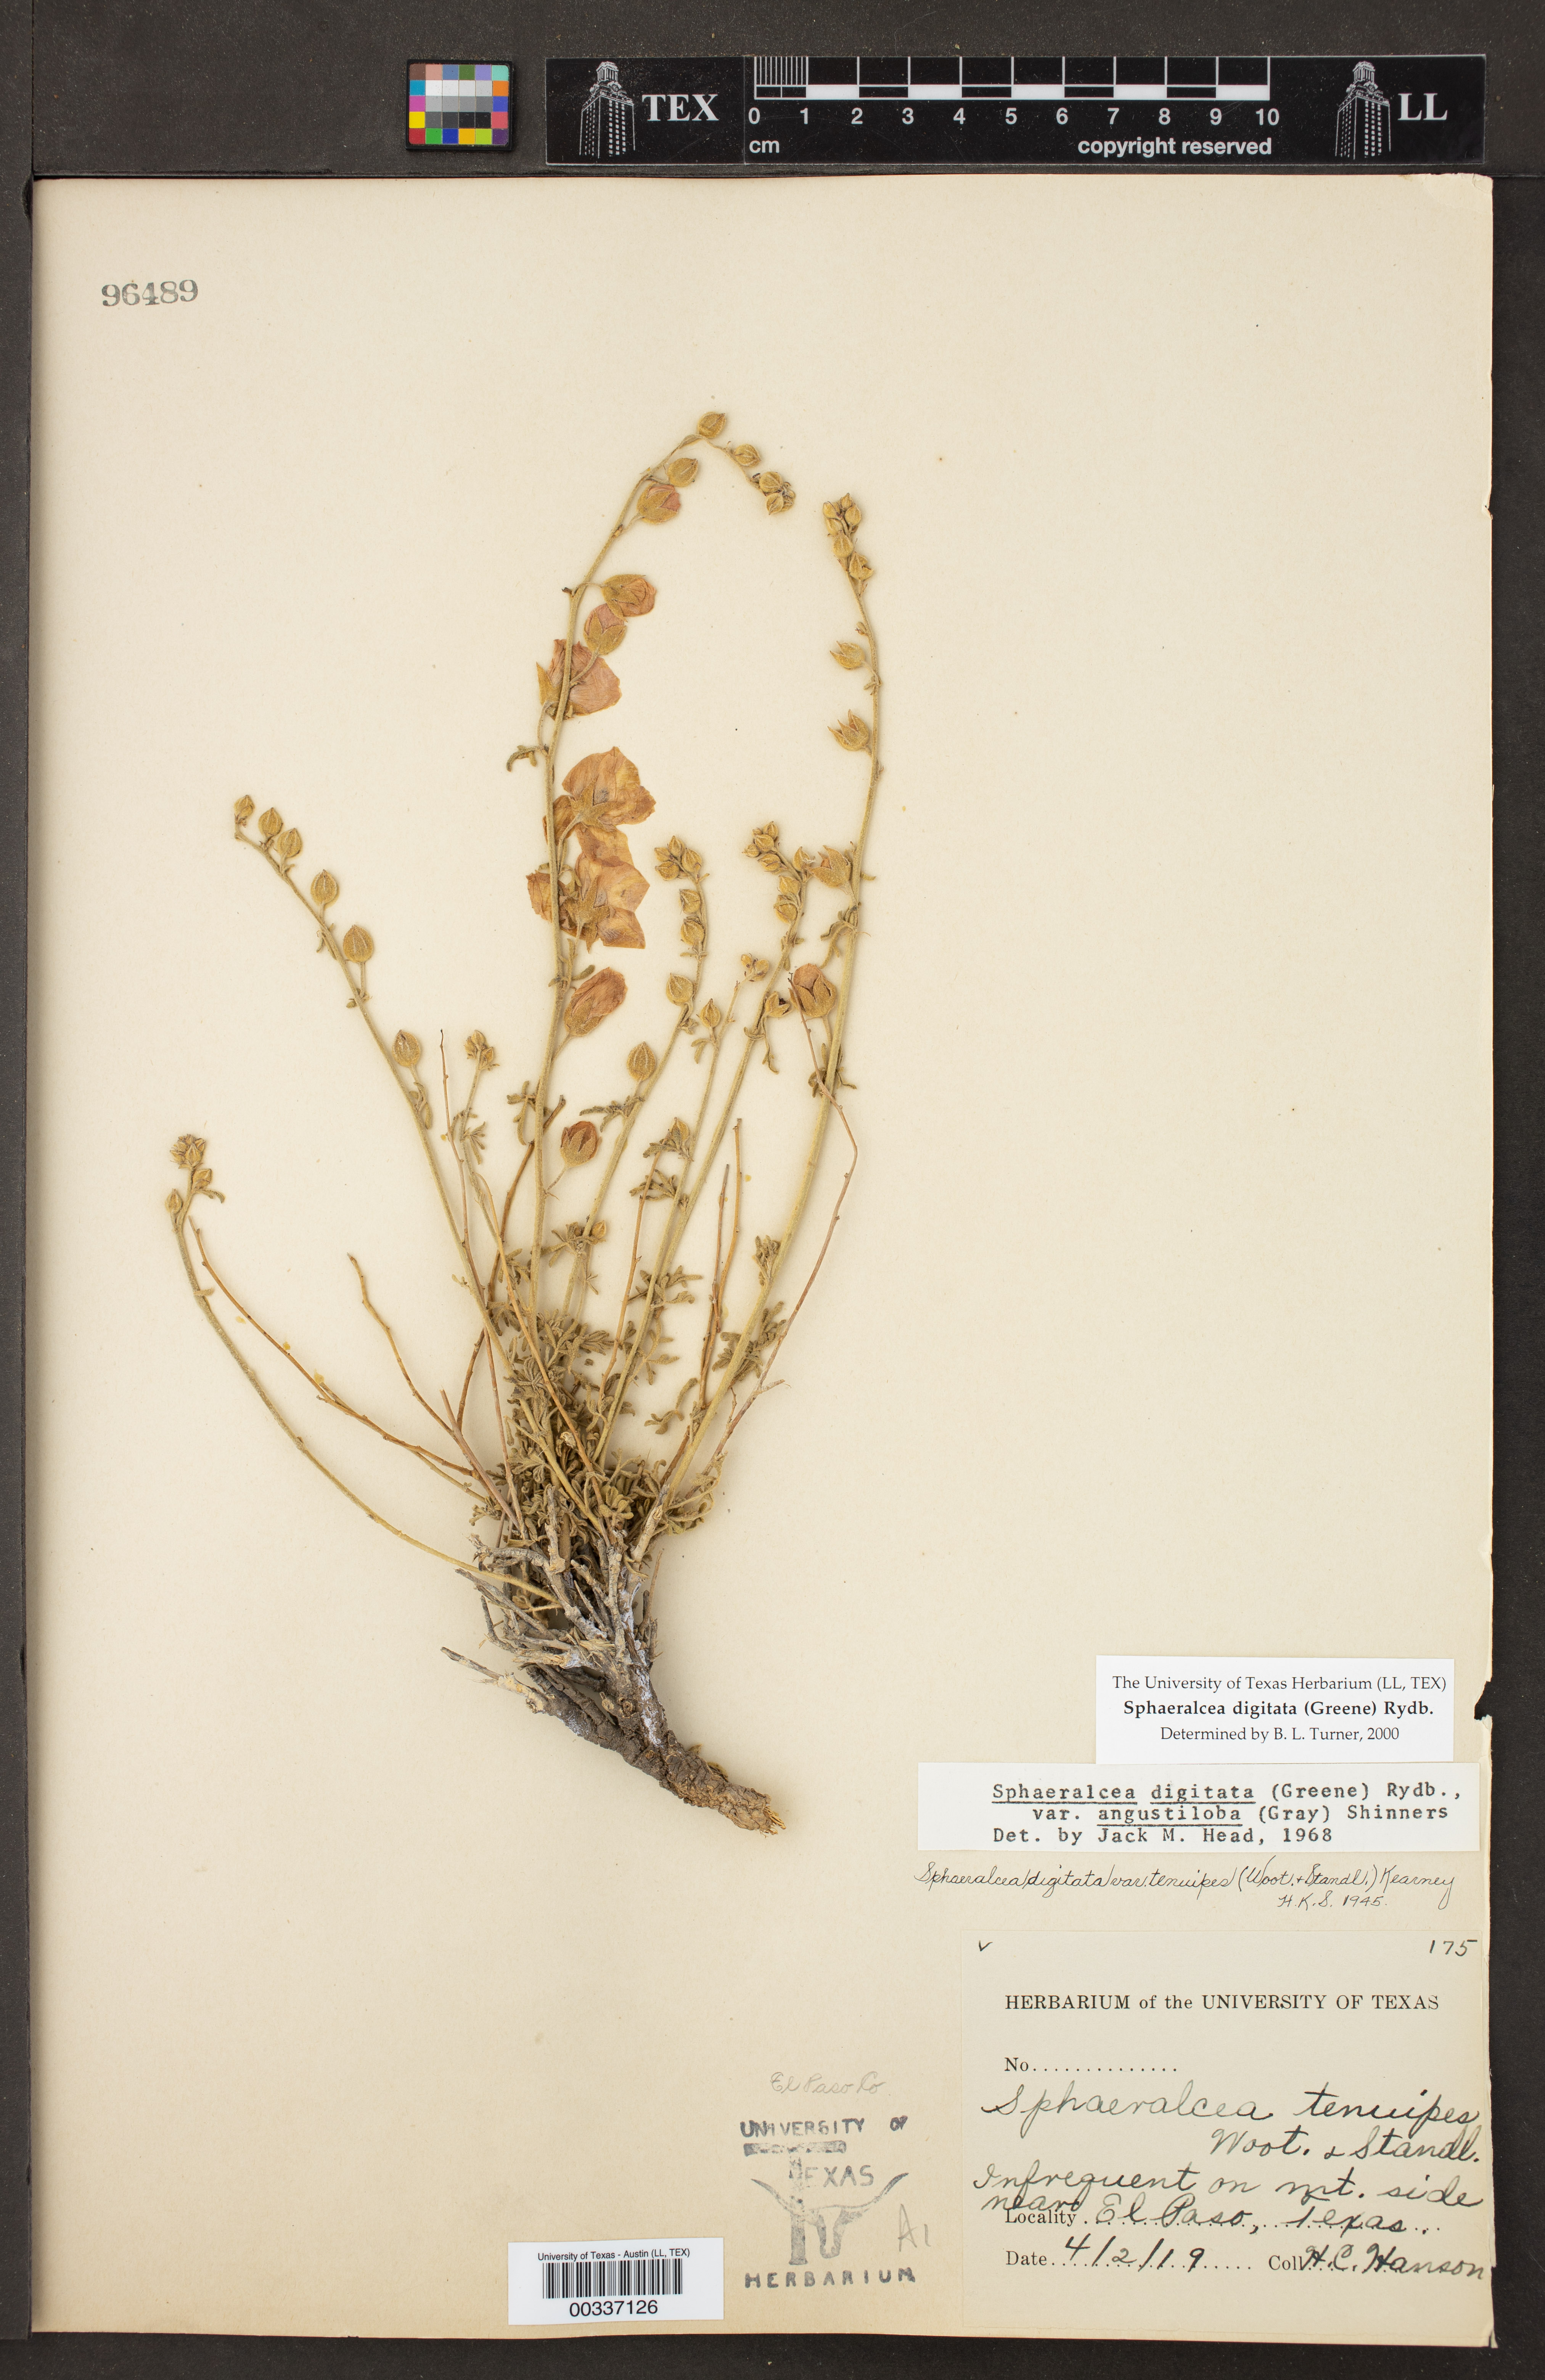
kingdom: Plantae
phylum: Tracheophyta
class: Magnoliopsida
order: Malvales
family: Malvaceae
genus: Sphaeralcea
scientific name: Sphaeralcea digitata
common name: Juniper-gobe-mallow
